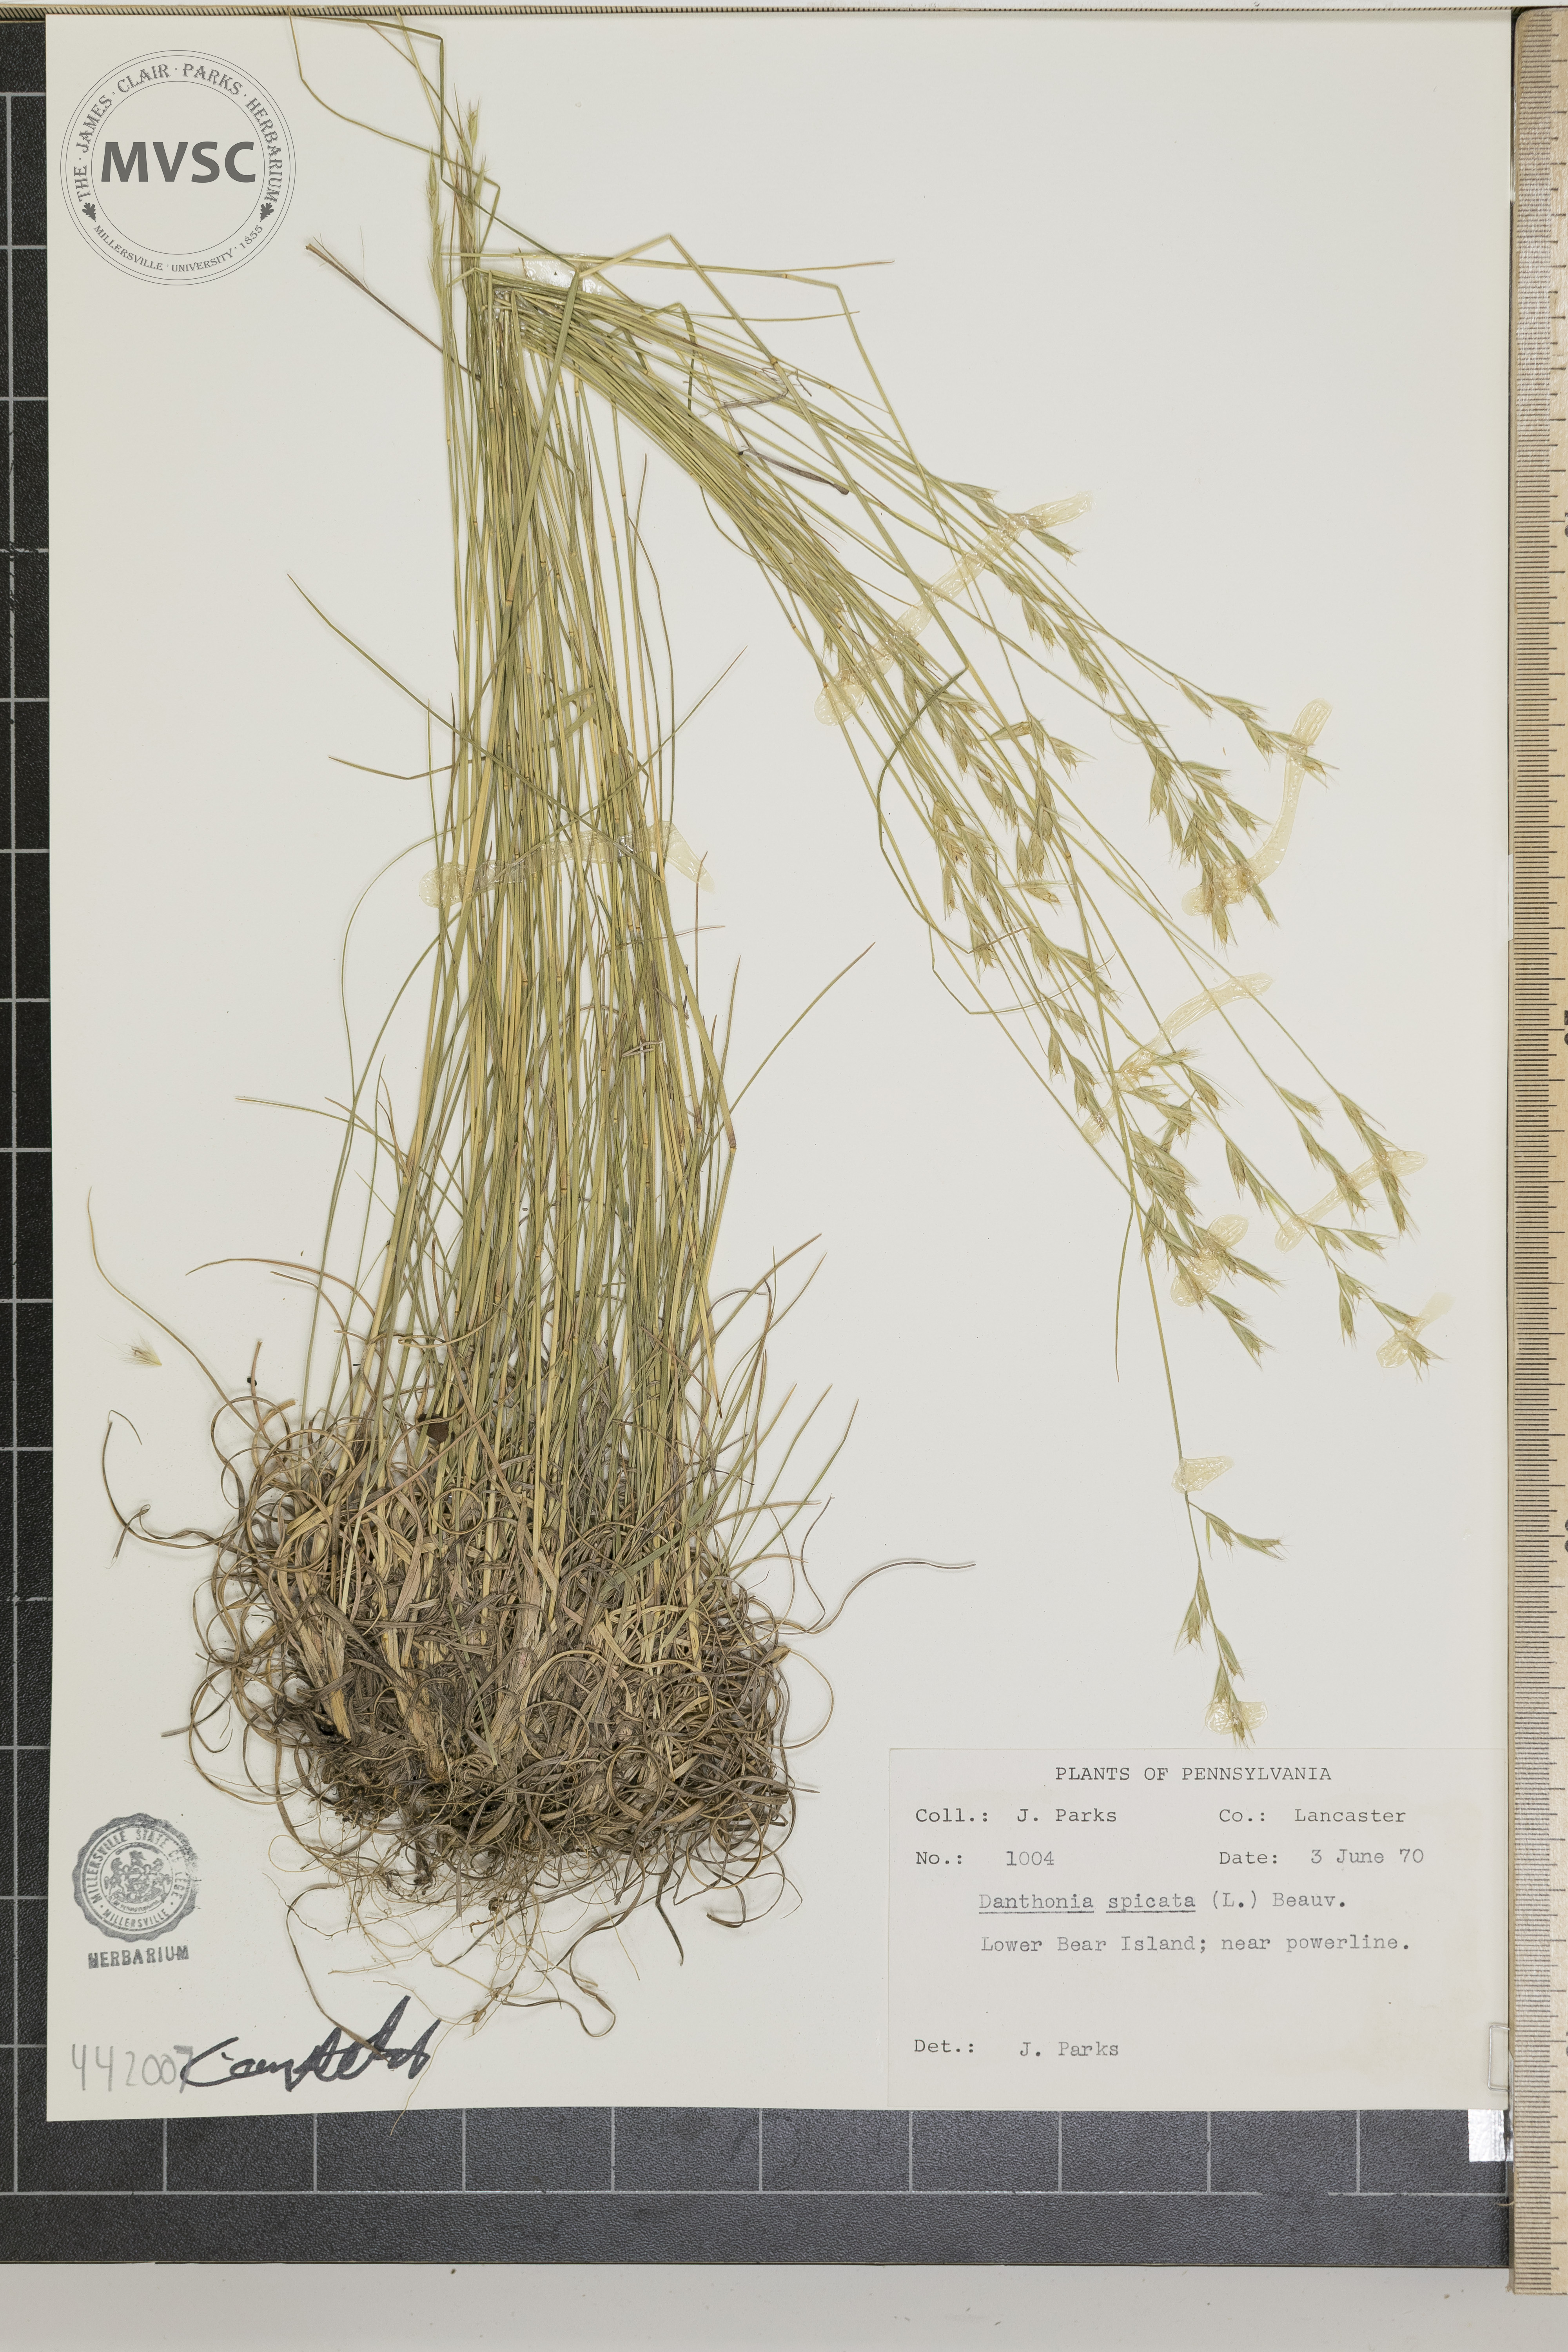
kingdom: Plantae
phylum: Tracheophyta
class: Liliopsida
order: Poales
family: Poaceae
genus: Danthonia
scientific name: Danthonia spicata
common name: Common wild oatgrass
